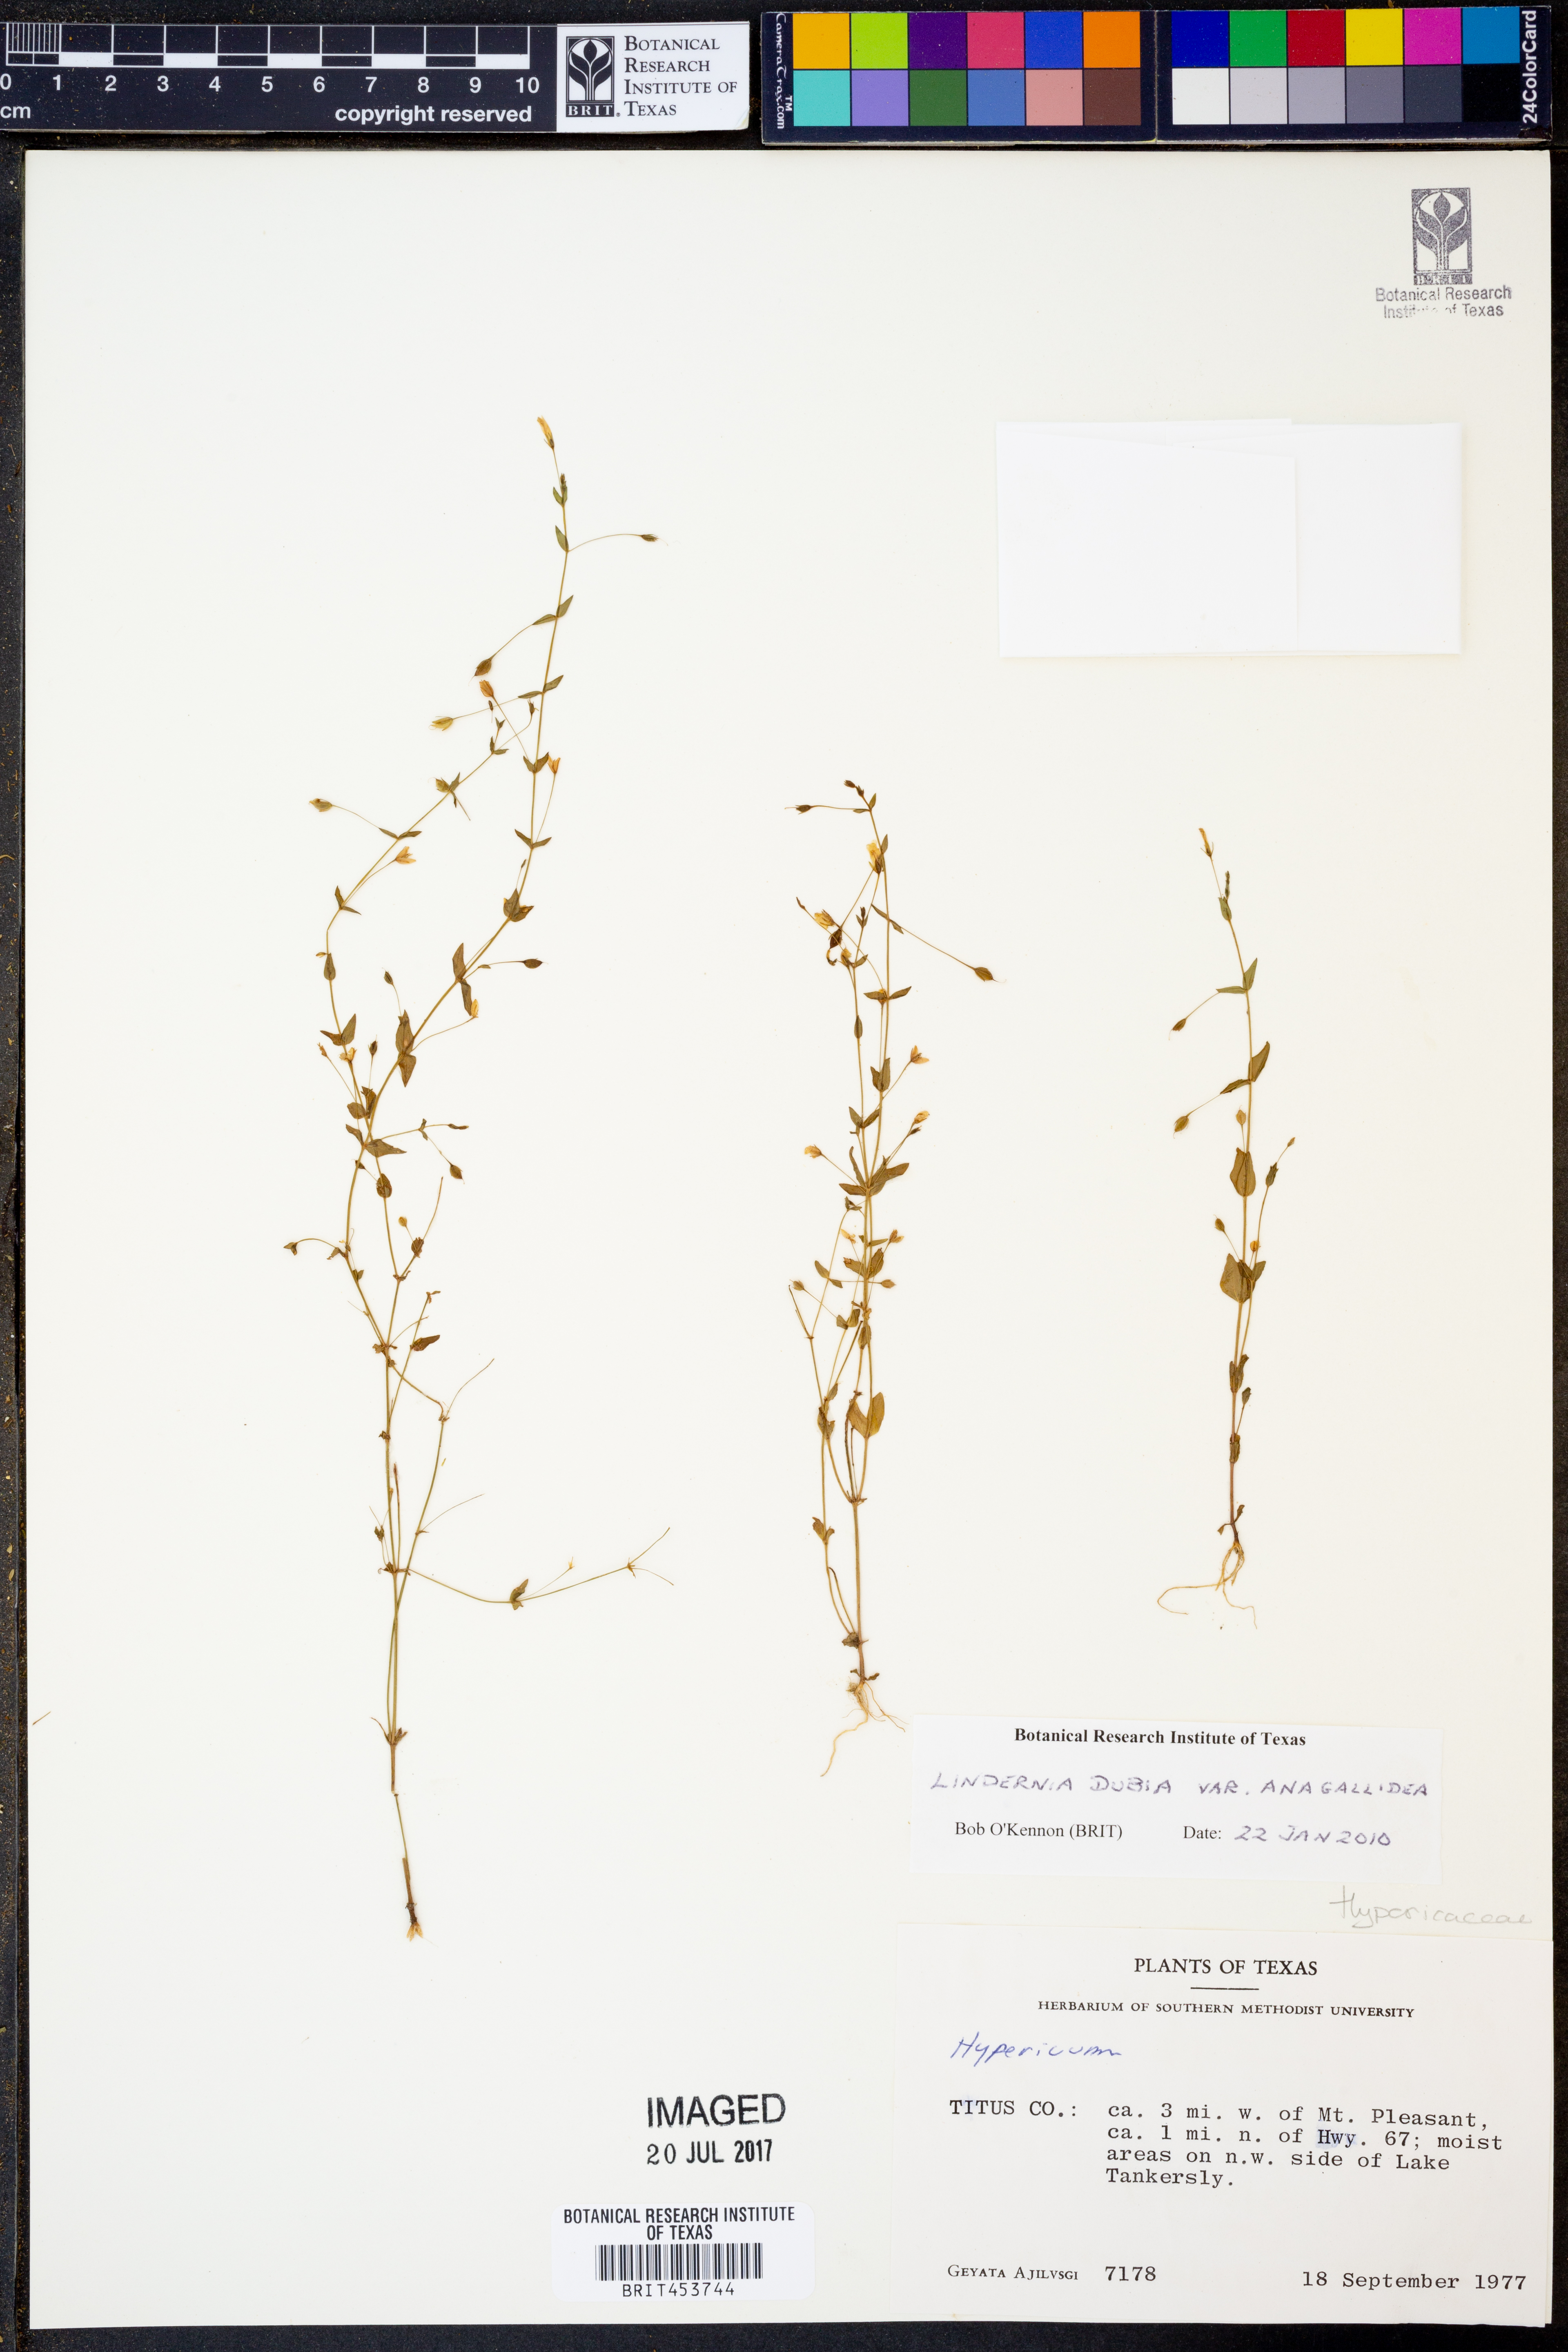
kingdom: Plantae
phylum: Tracheophyta
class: Magnoliopsida
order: Lamiales
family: Linderniaceae
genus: Lindernia
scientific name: Lindernia dubia
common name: Annual false pimpernel
